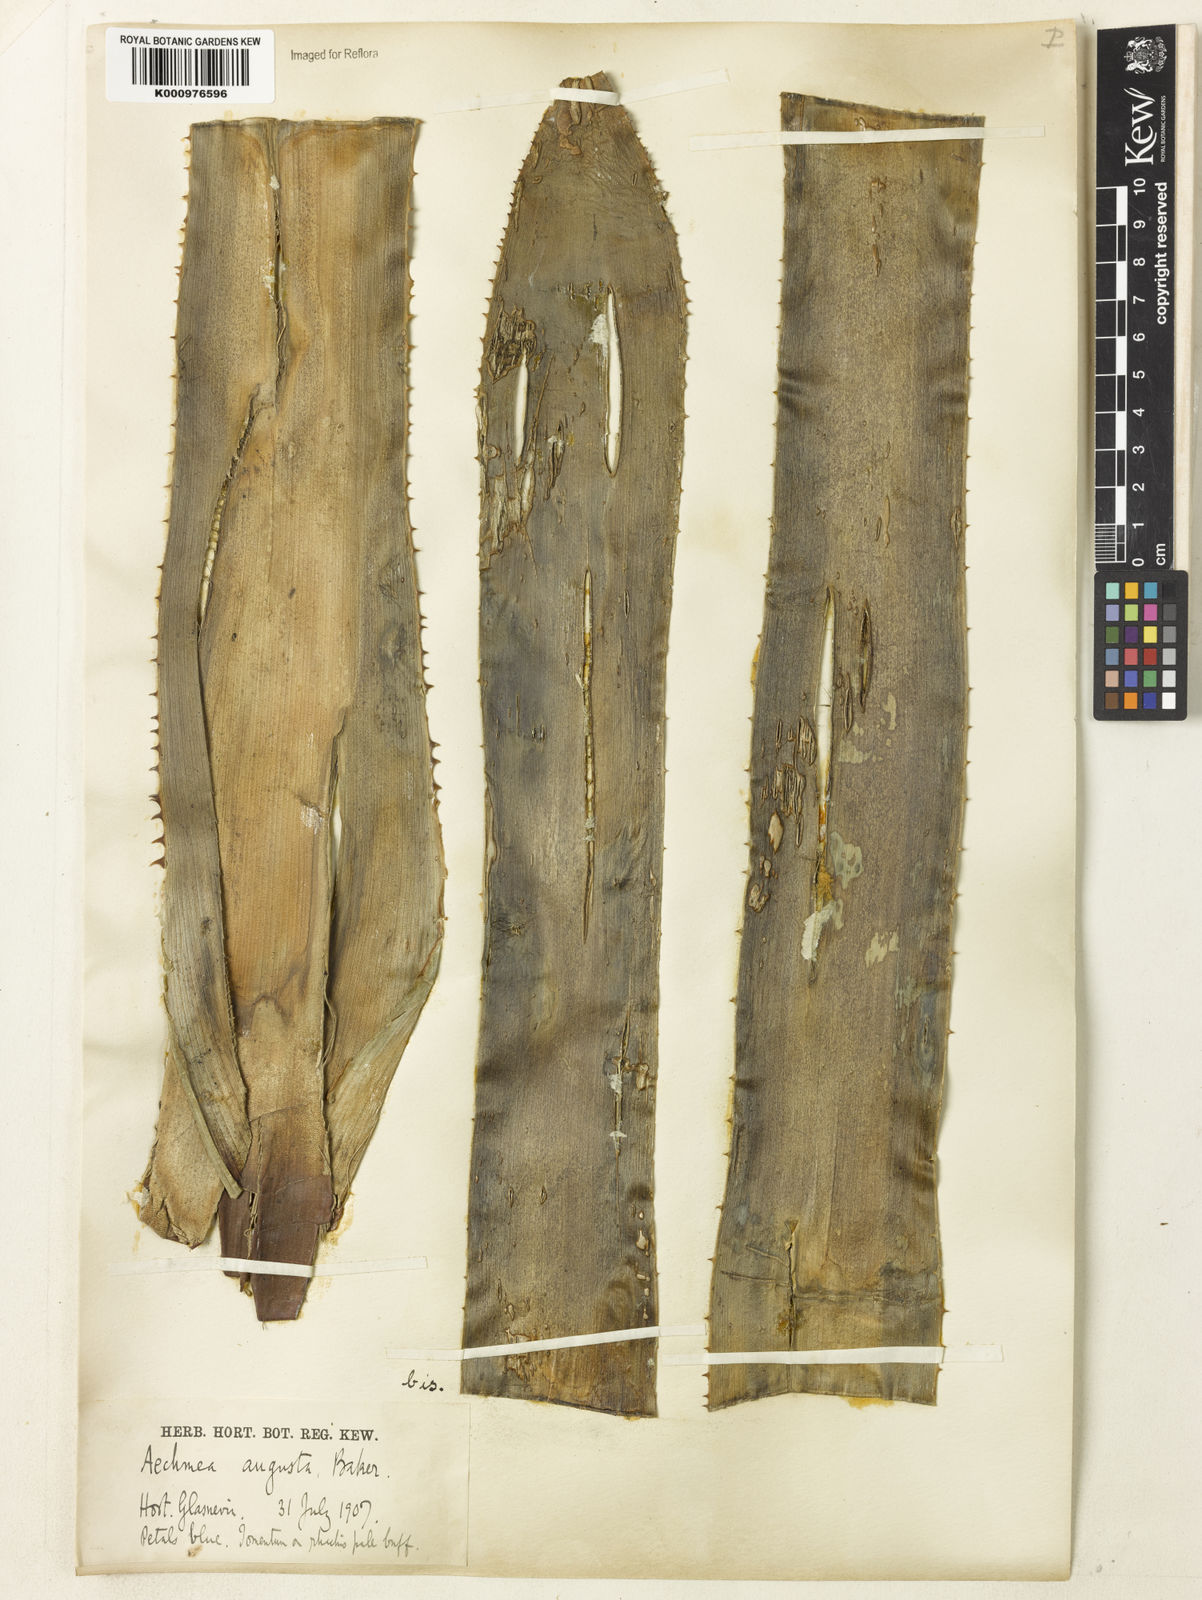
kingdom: Plantae
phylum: Tracheophyta
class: Liliopsida
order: Poales
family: Bromeliaceae
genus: Hohenbergia
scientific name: Hohenbergia augusta
